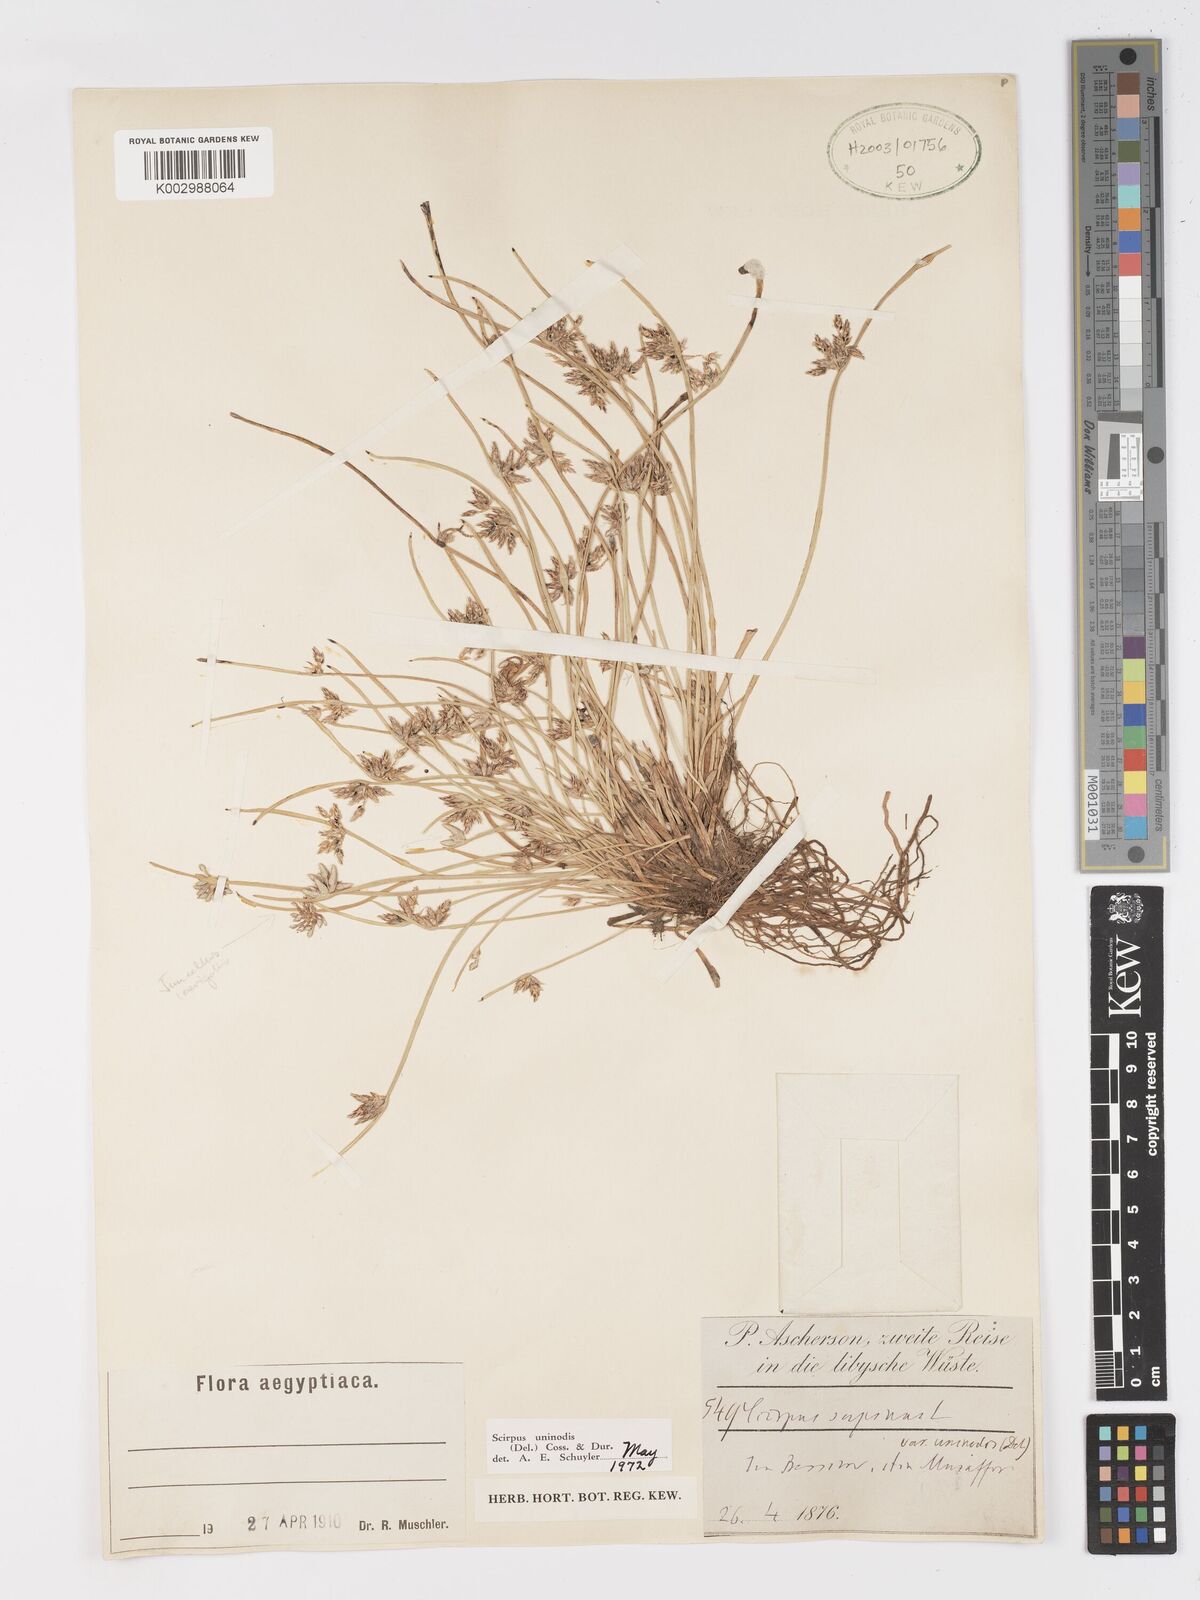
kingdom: Plantae
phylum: Tracheophyta
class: Liliopsida
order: Poales
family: Cyperaceae
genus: Schoenoplectus
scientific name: Schoenoplectus
